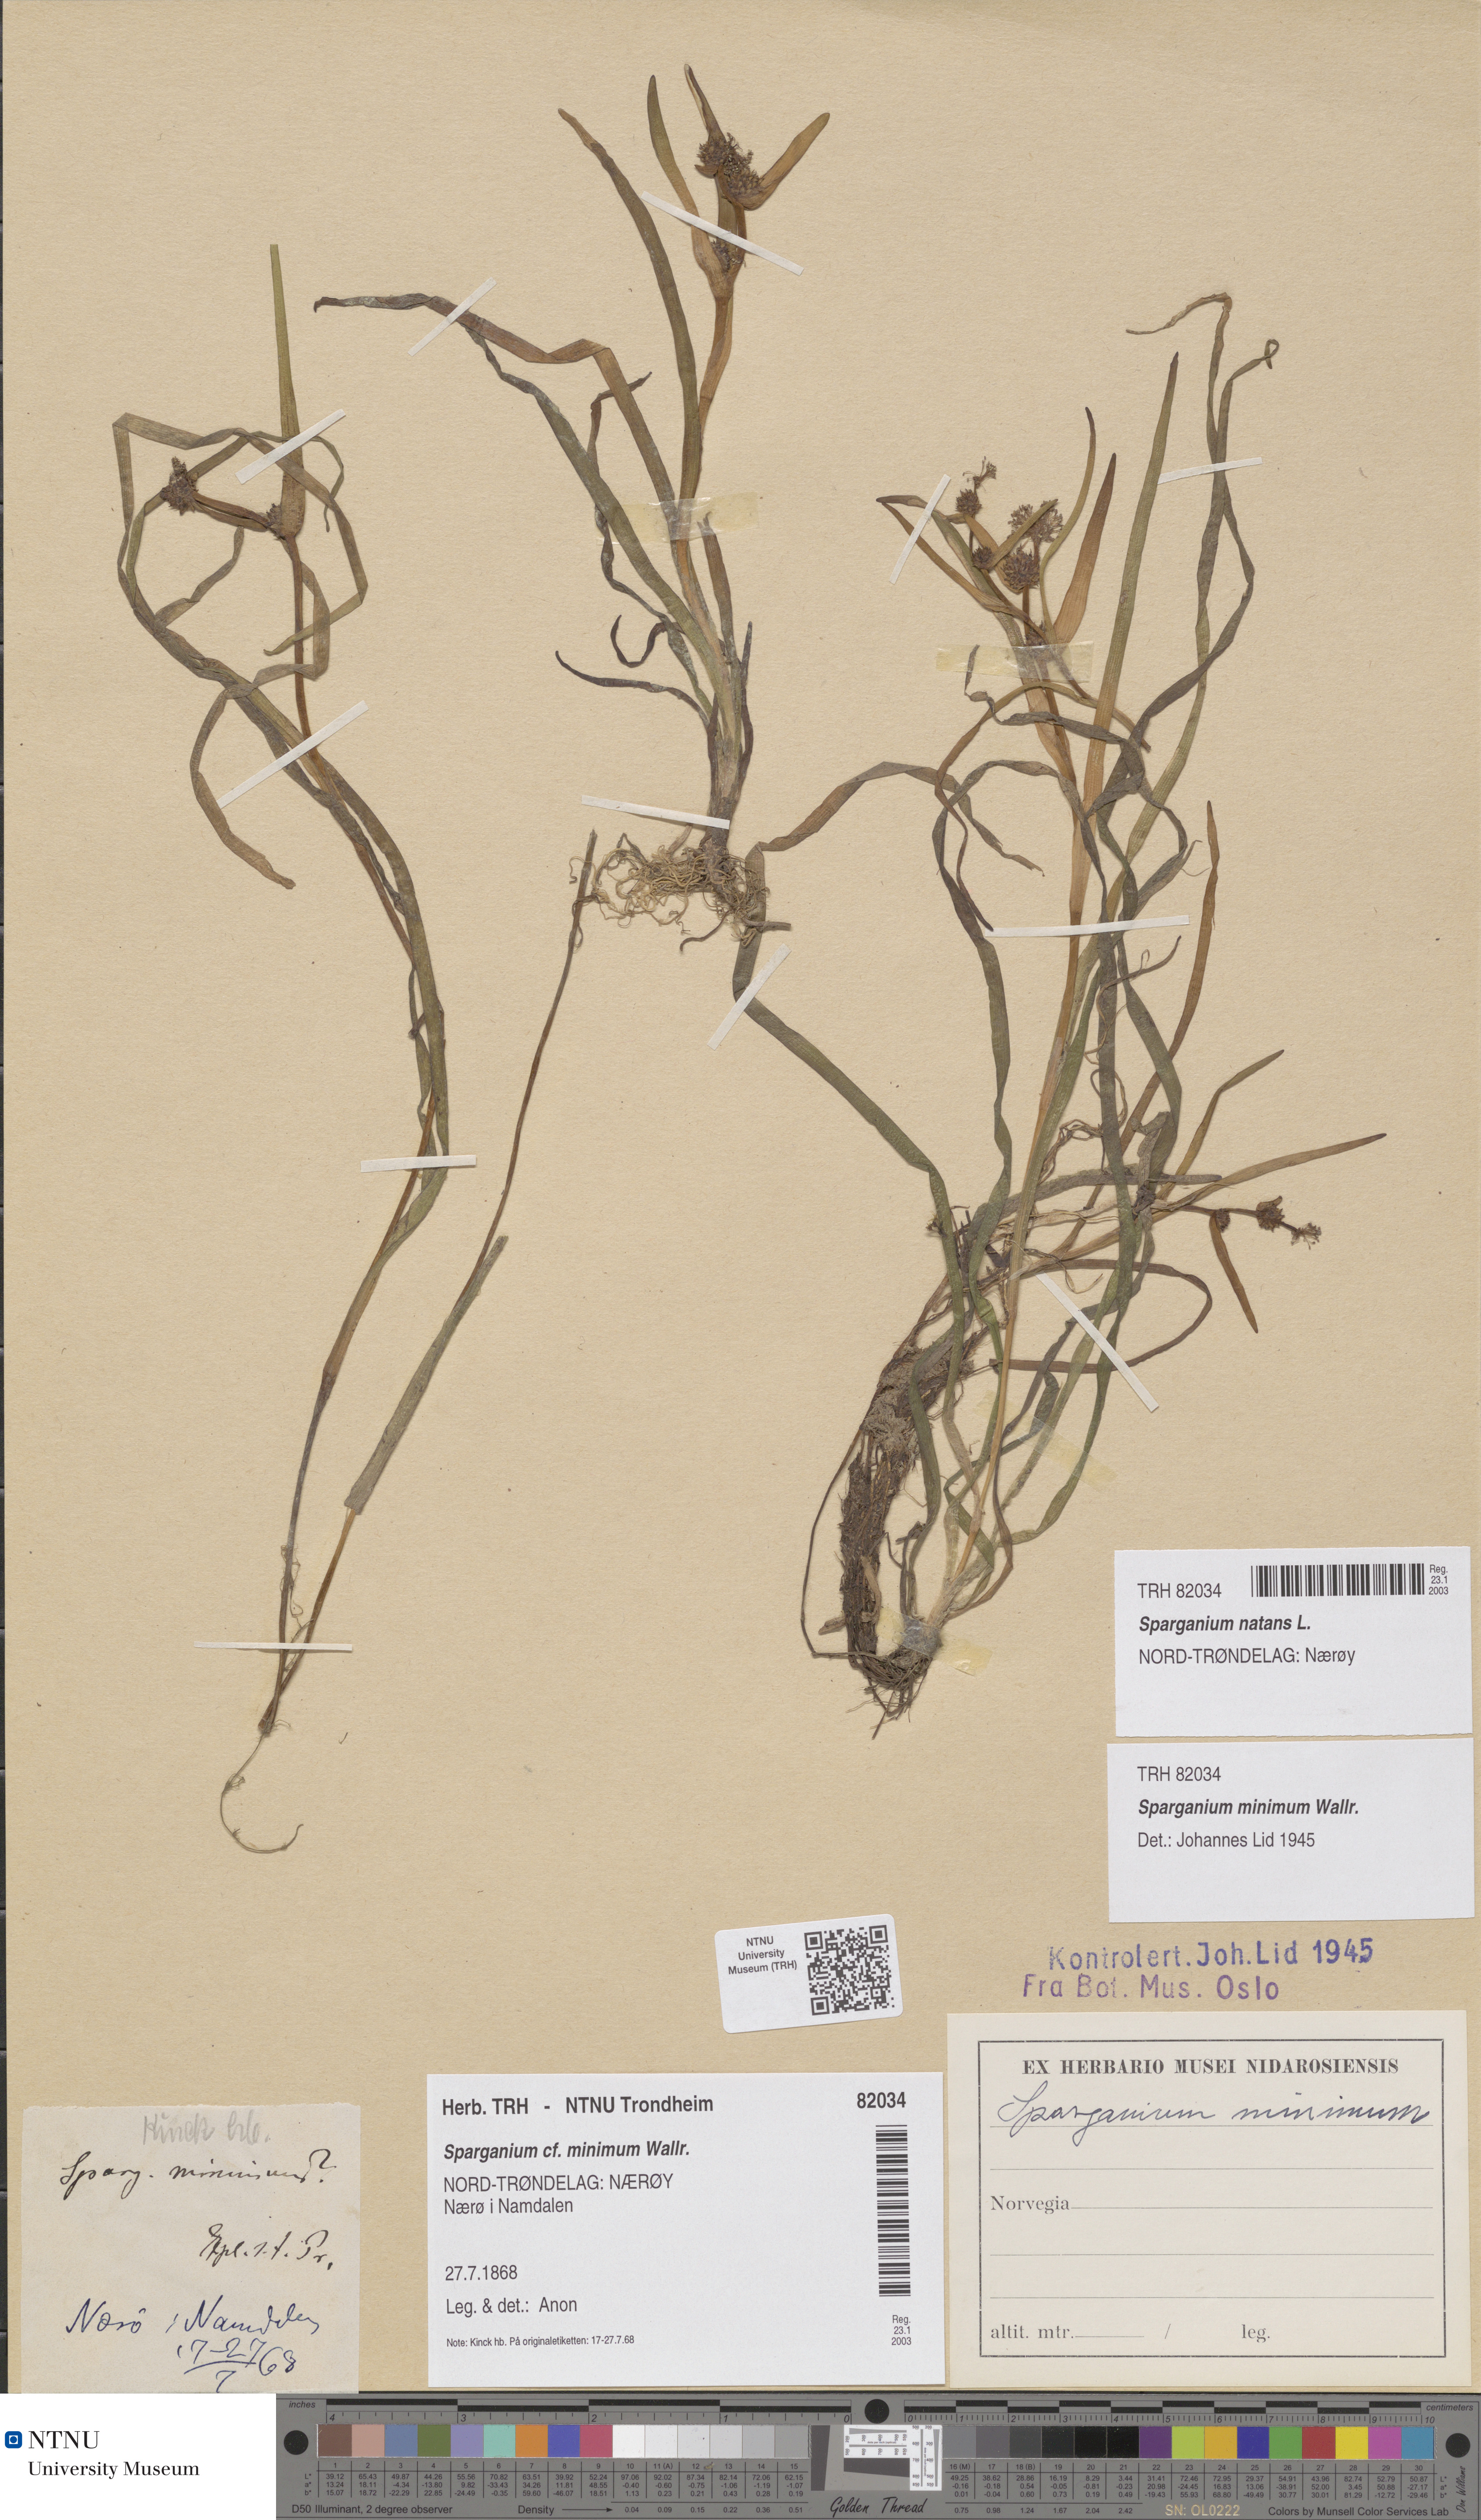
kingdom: Plantae
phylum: Tracheophyta
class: Liliopsida
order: Poales
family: Typhaceae
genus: Sparganium
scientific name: Sparganium natans
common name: Least bur-reed
